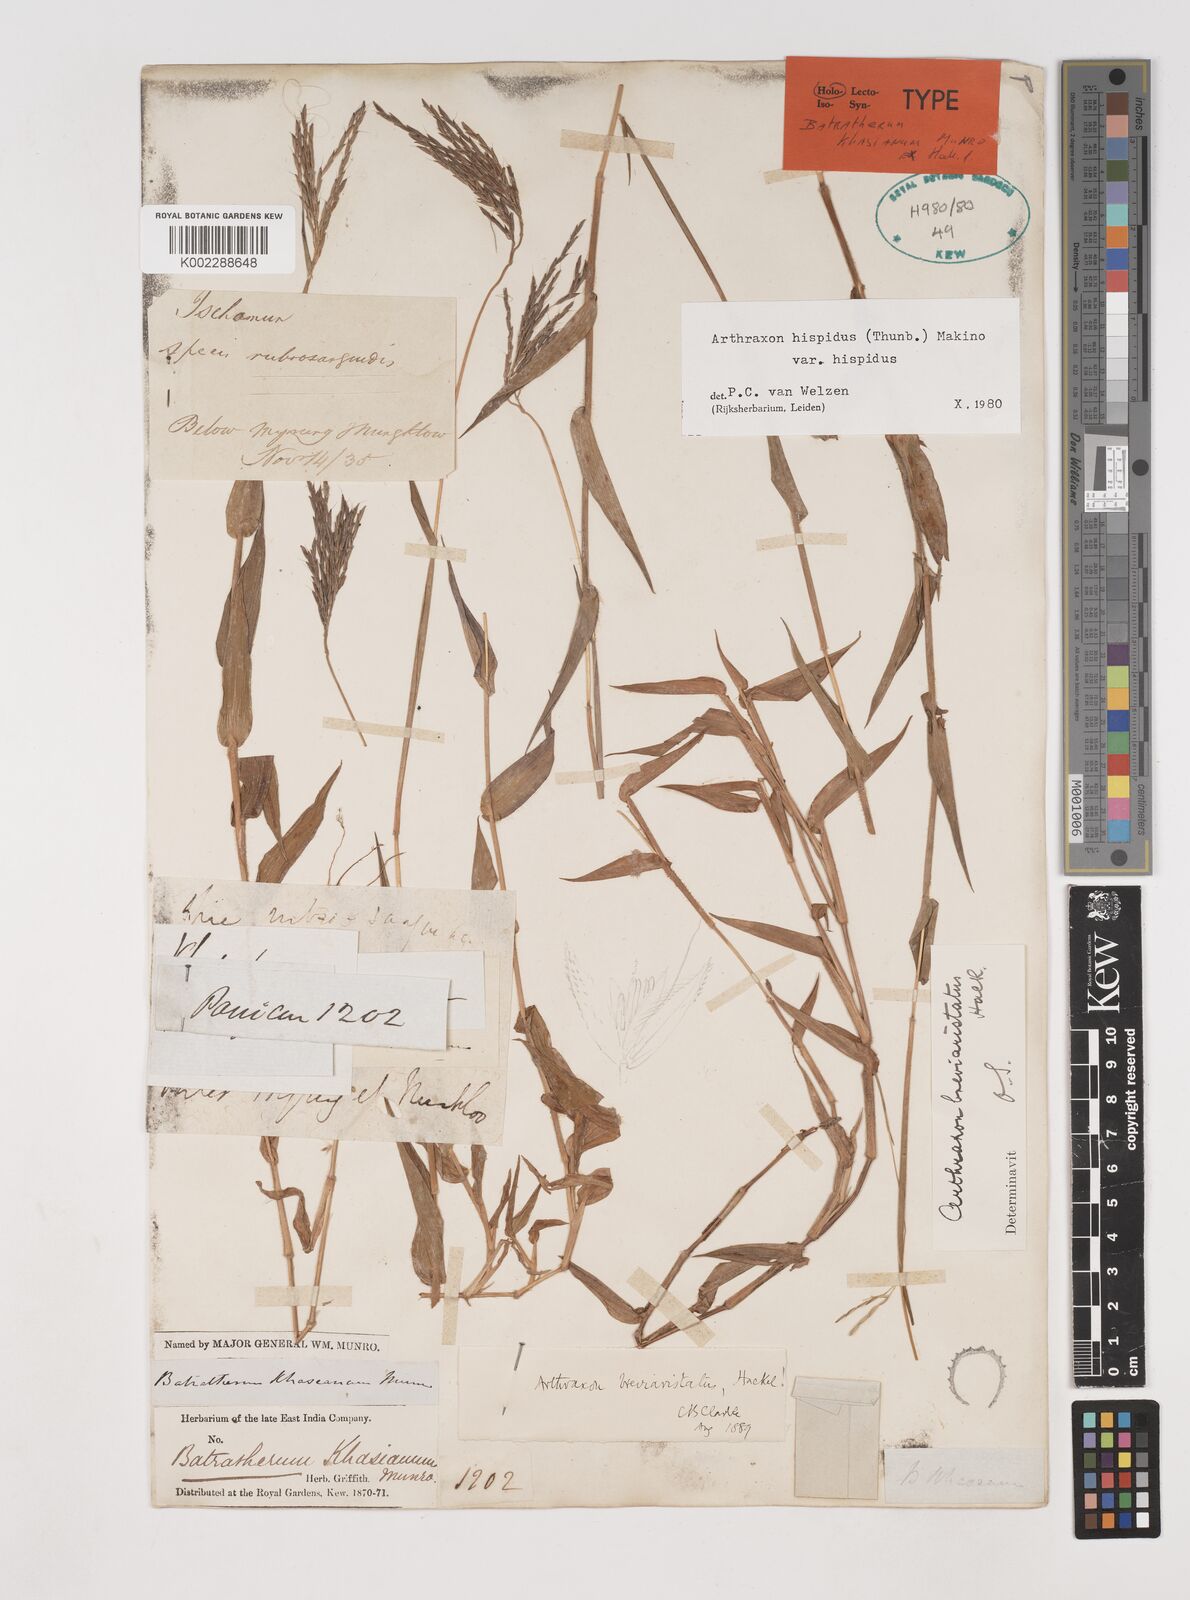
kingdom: Plantae
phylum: Tracheophyta
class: Liliopsida
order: Poales
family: Poaceae
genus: Arthraxon
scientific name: Arthraxon typicus
